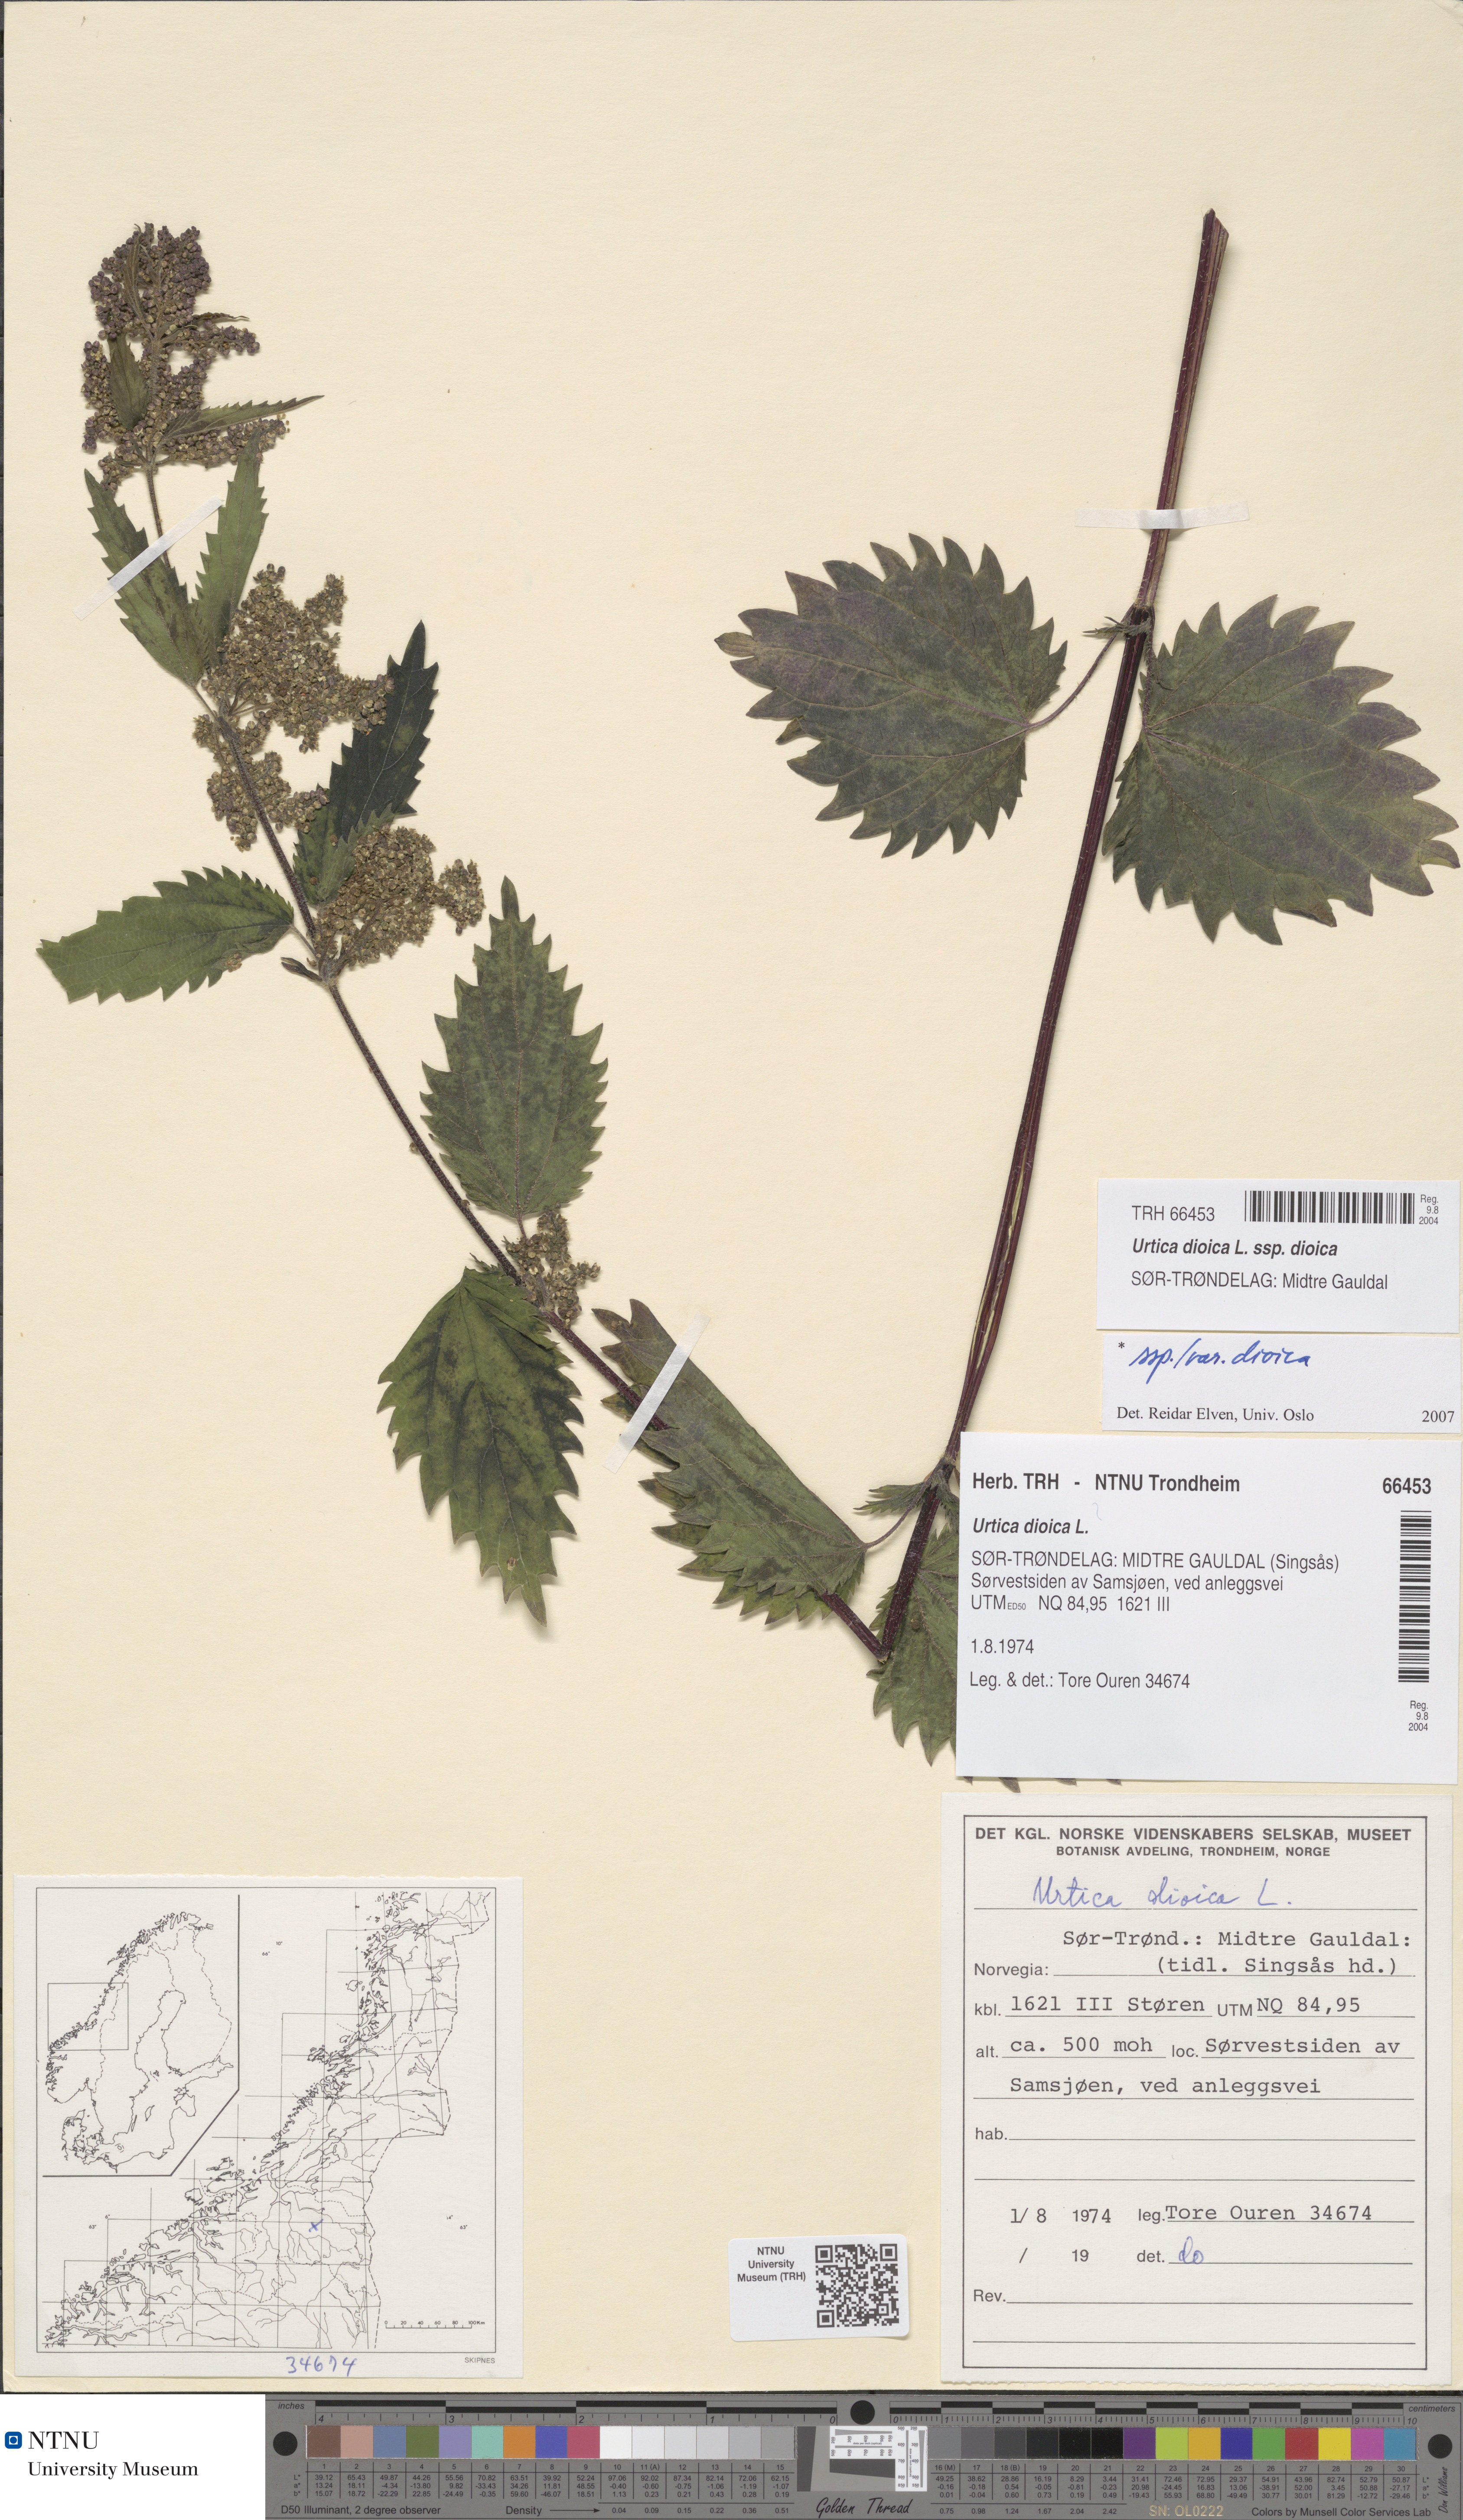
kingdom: Plantae
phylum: Tracheophyta
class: Magnoliopsida
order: Rosales
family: Urticaceae
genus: Urtica
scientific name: Urtica dioica
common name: Common nettle
